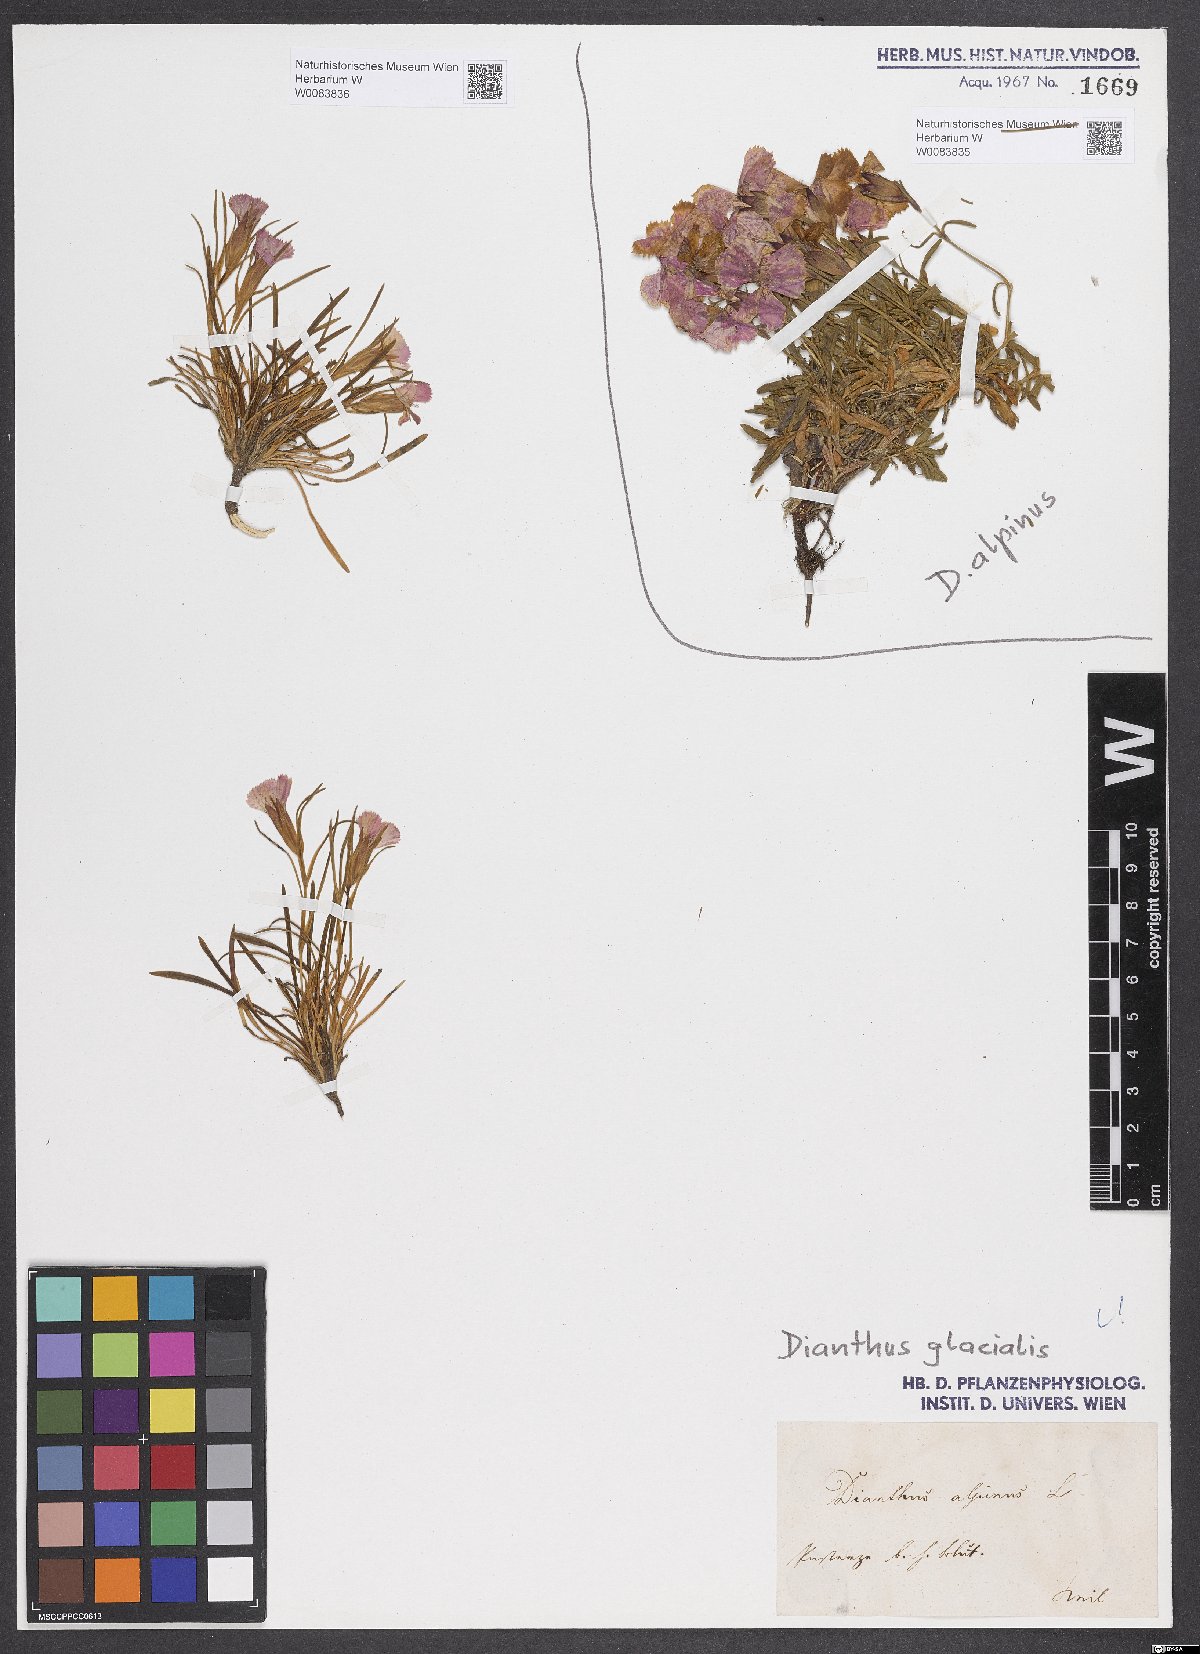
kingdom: Plantae
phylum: Tracheophyta
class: Magnoliopsida
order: Caryophyllales
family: Caryophyllaceae
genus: Dianthus
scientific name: Dianthus alpinus
